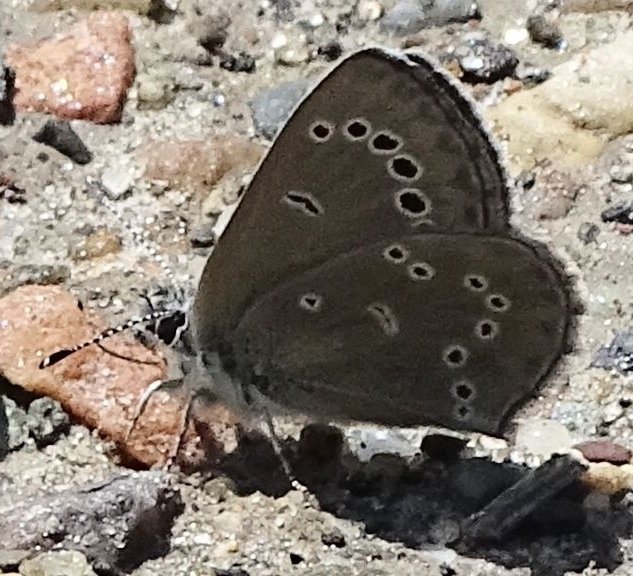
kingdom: Animalia
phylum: Arthropoda
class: Insecta
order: Lepidoptera
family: Lycaenidae
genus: Glaucopsyche
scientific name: Glaucopsyche lygdamus
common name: Silvery Blue
